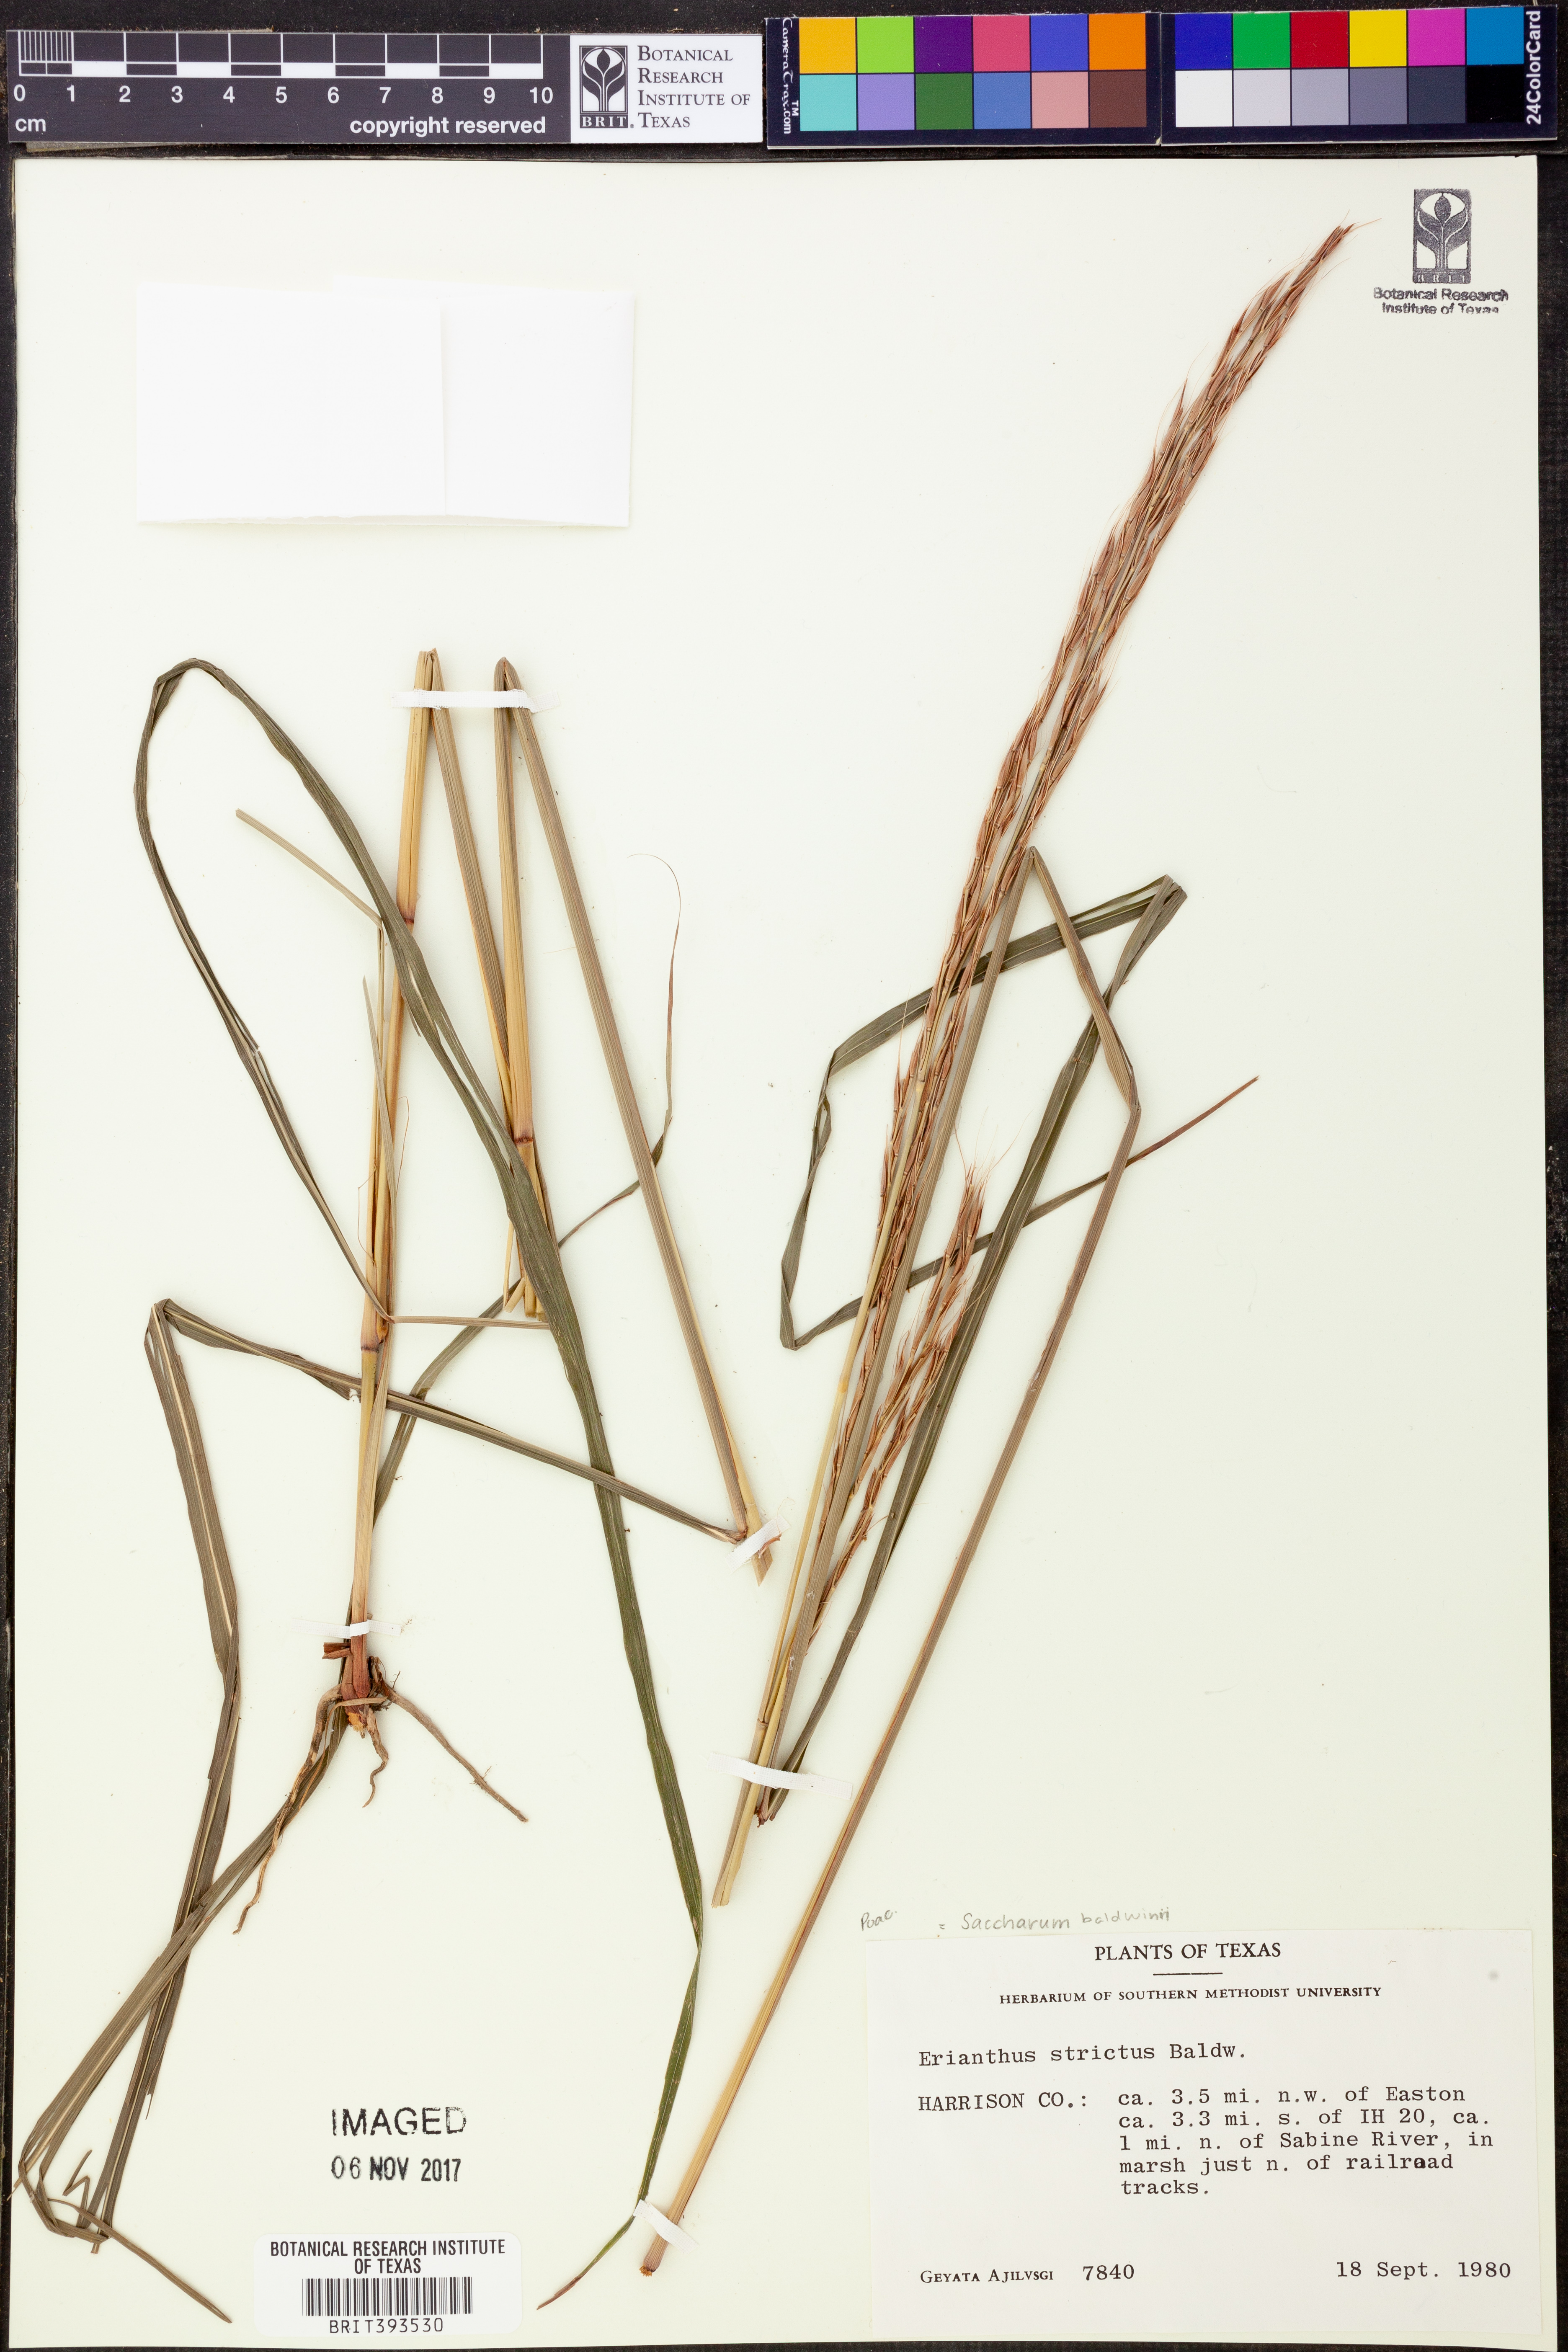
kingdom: Plantae
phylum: Tracheophyta
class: Liliopsida
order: Poales
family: Poaceae
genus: Erianthus
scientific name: Erianthus strictus
